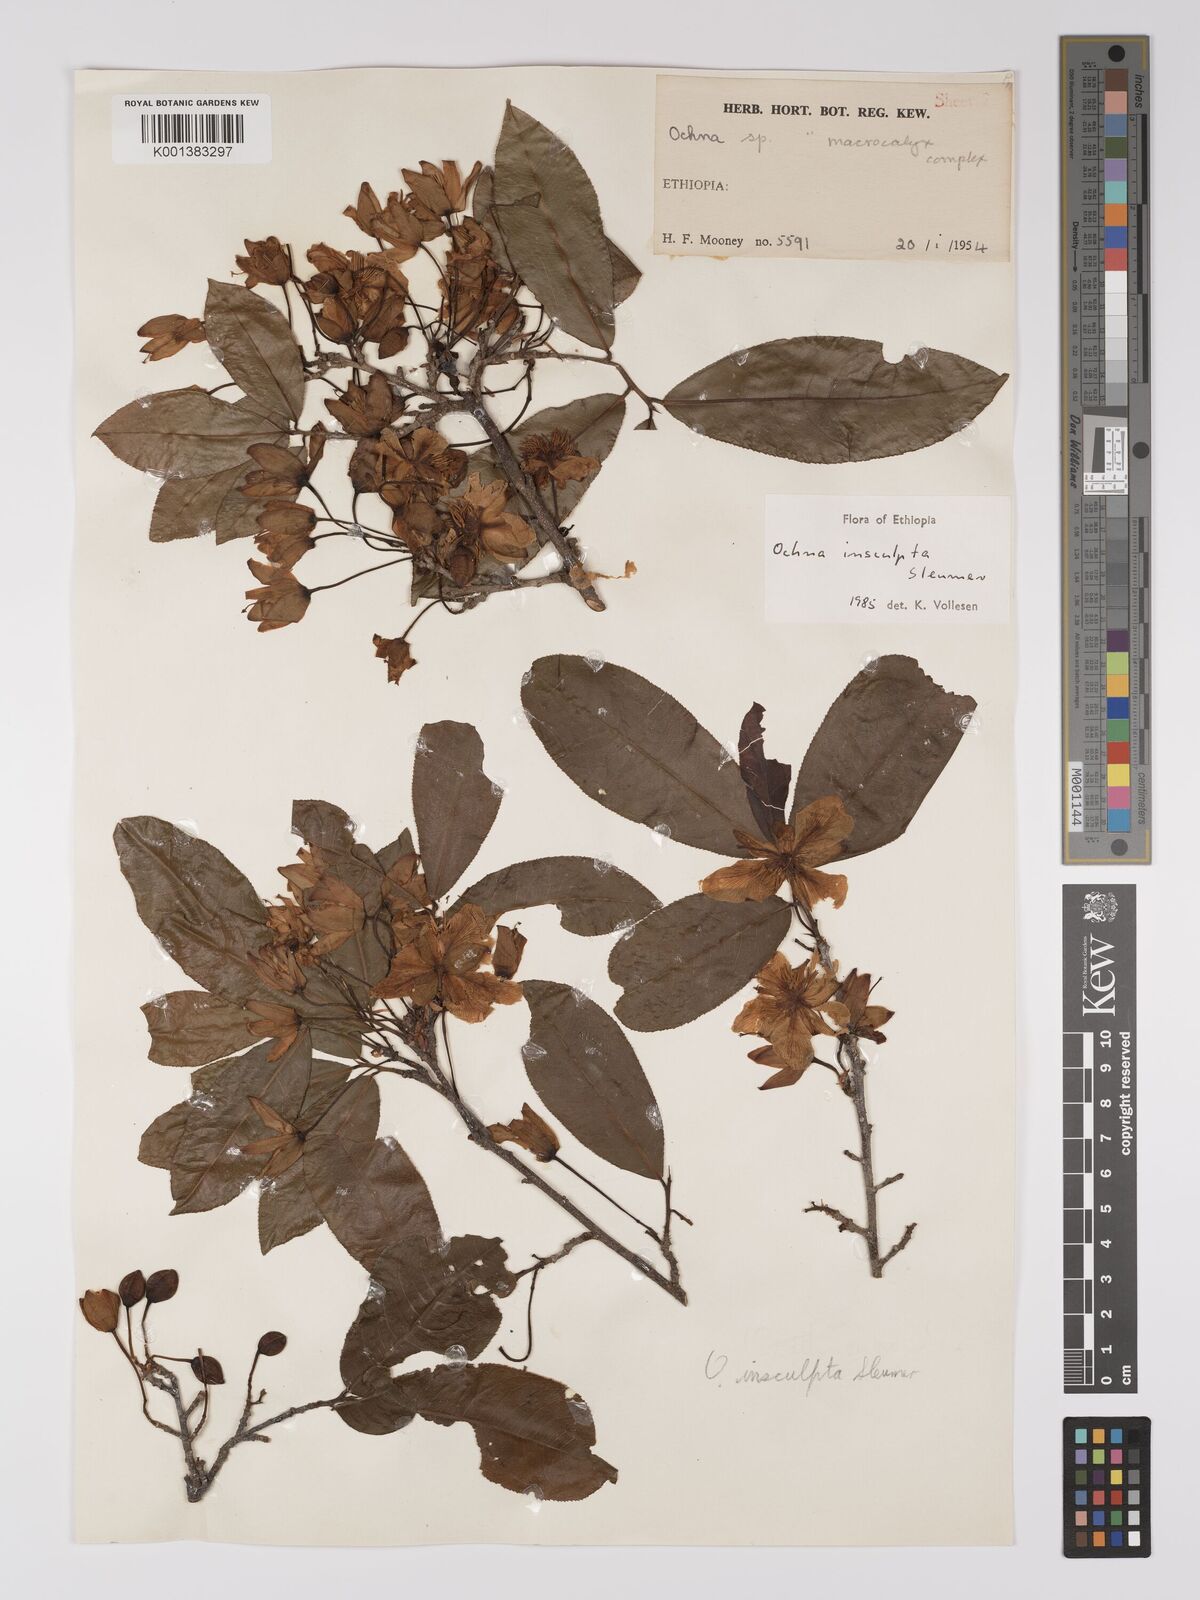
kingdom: Plantae
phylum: Tracheophyta
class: Magnoliopsida
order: Malpighiales
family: Ochnaceae
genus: Ochna
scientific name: Ochna insculpta
